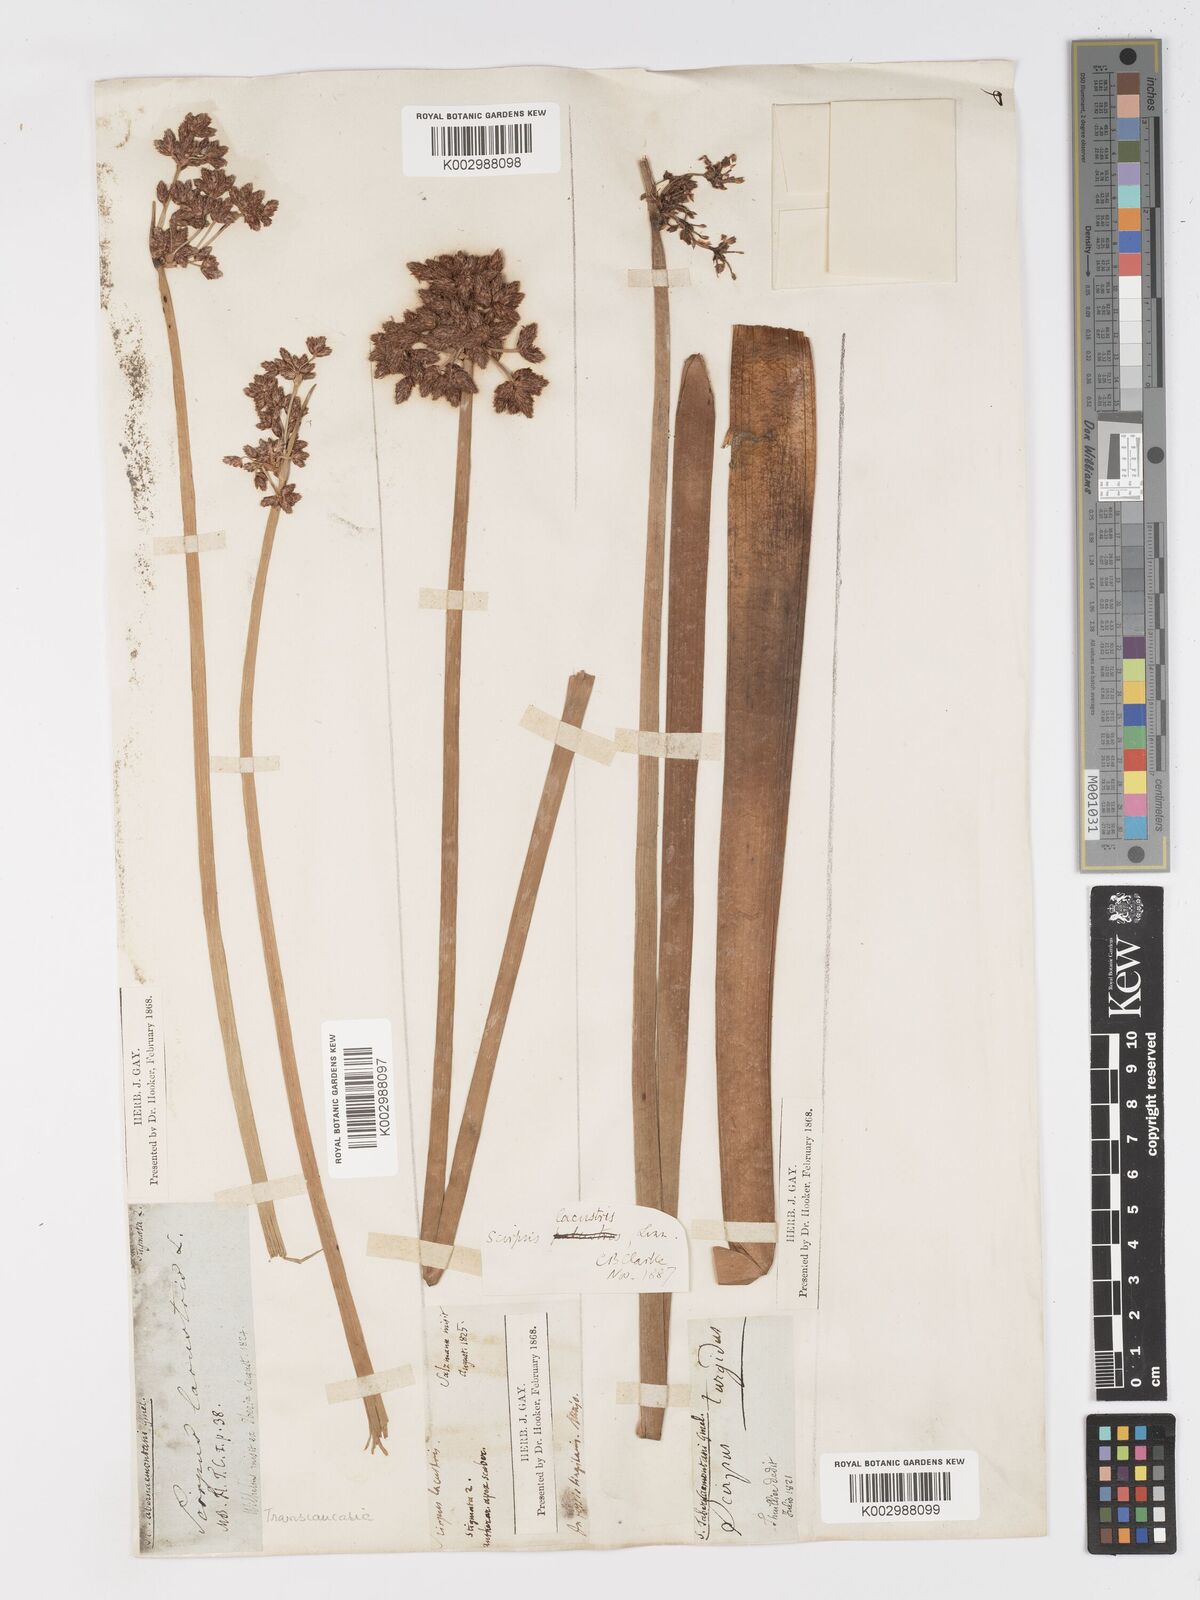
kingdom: Plantae
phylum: Tracheophyta
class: Liliopsida
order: Poales
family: Cyperaceae
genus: Schoenoplectus
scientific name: Schoenoplectus lacustris
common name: Common club-rush
